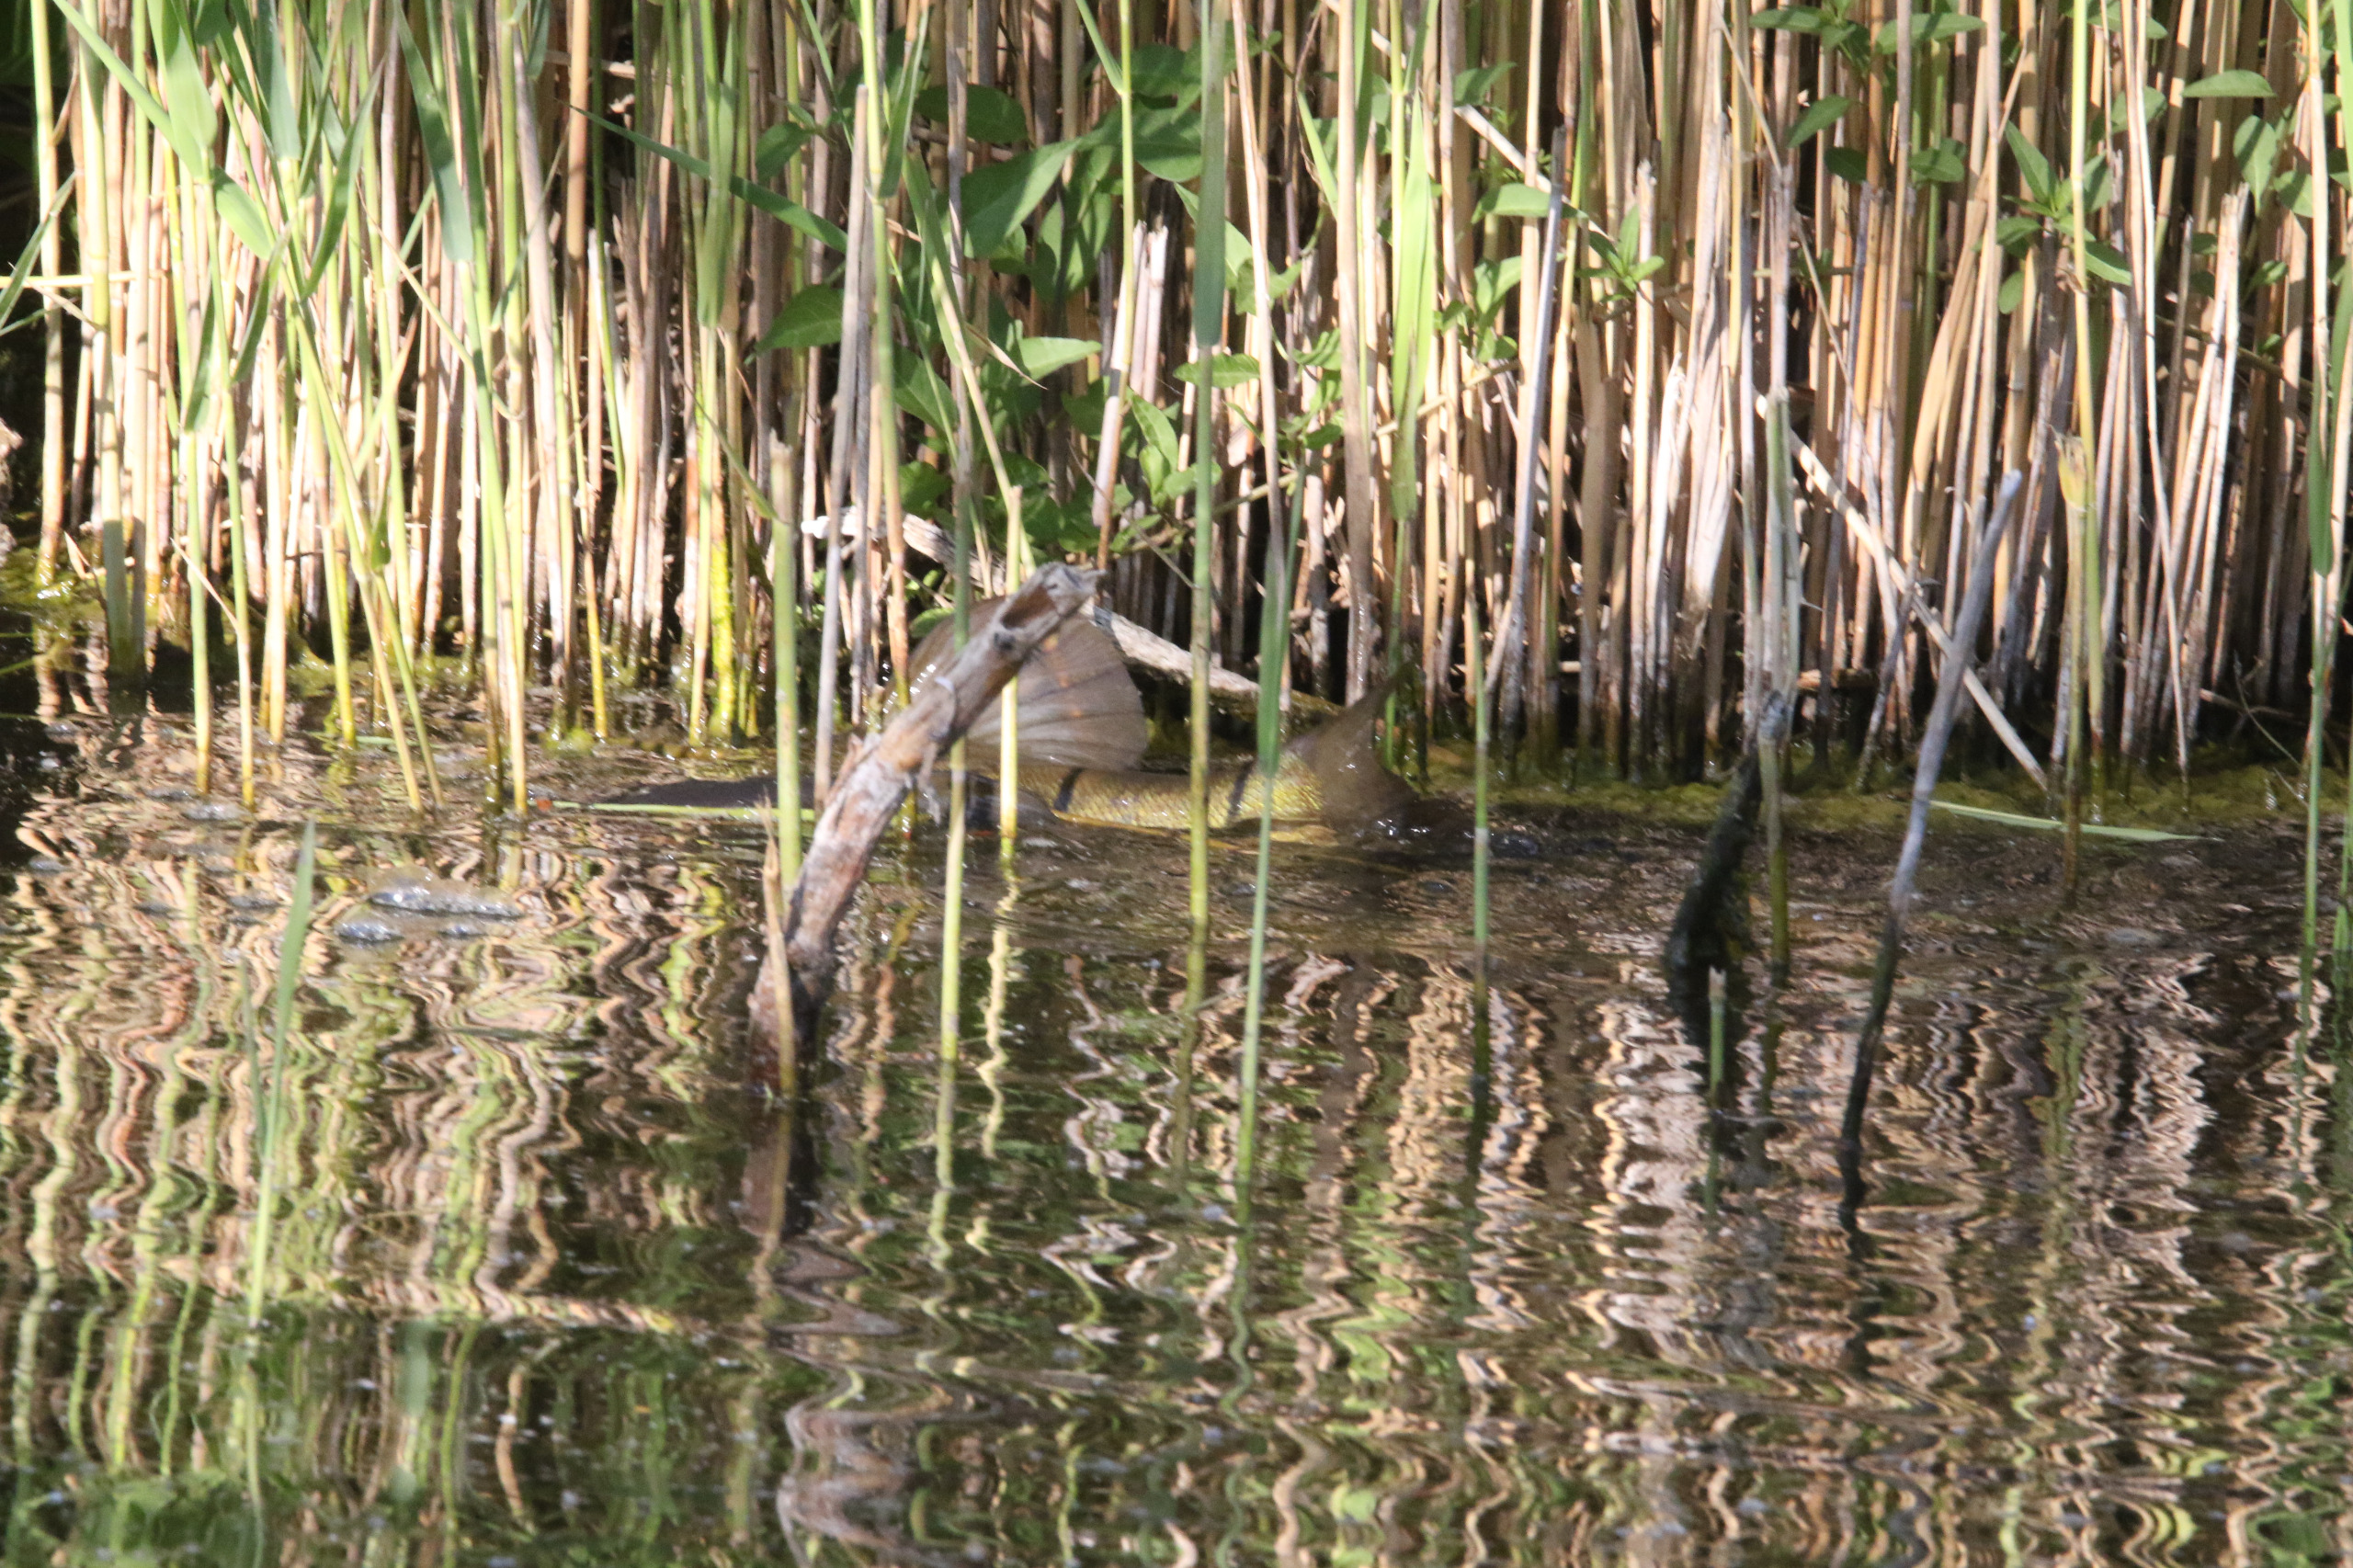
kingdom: Animalia
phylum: Chordata
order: Cypriniformes
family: Cyprinidae
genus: Tinca
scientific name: Tinca tinca
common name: Suder
